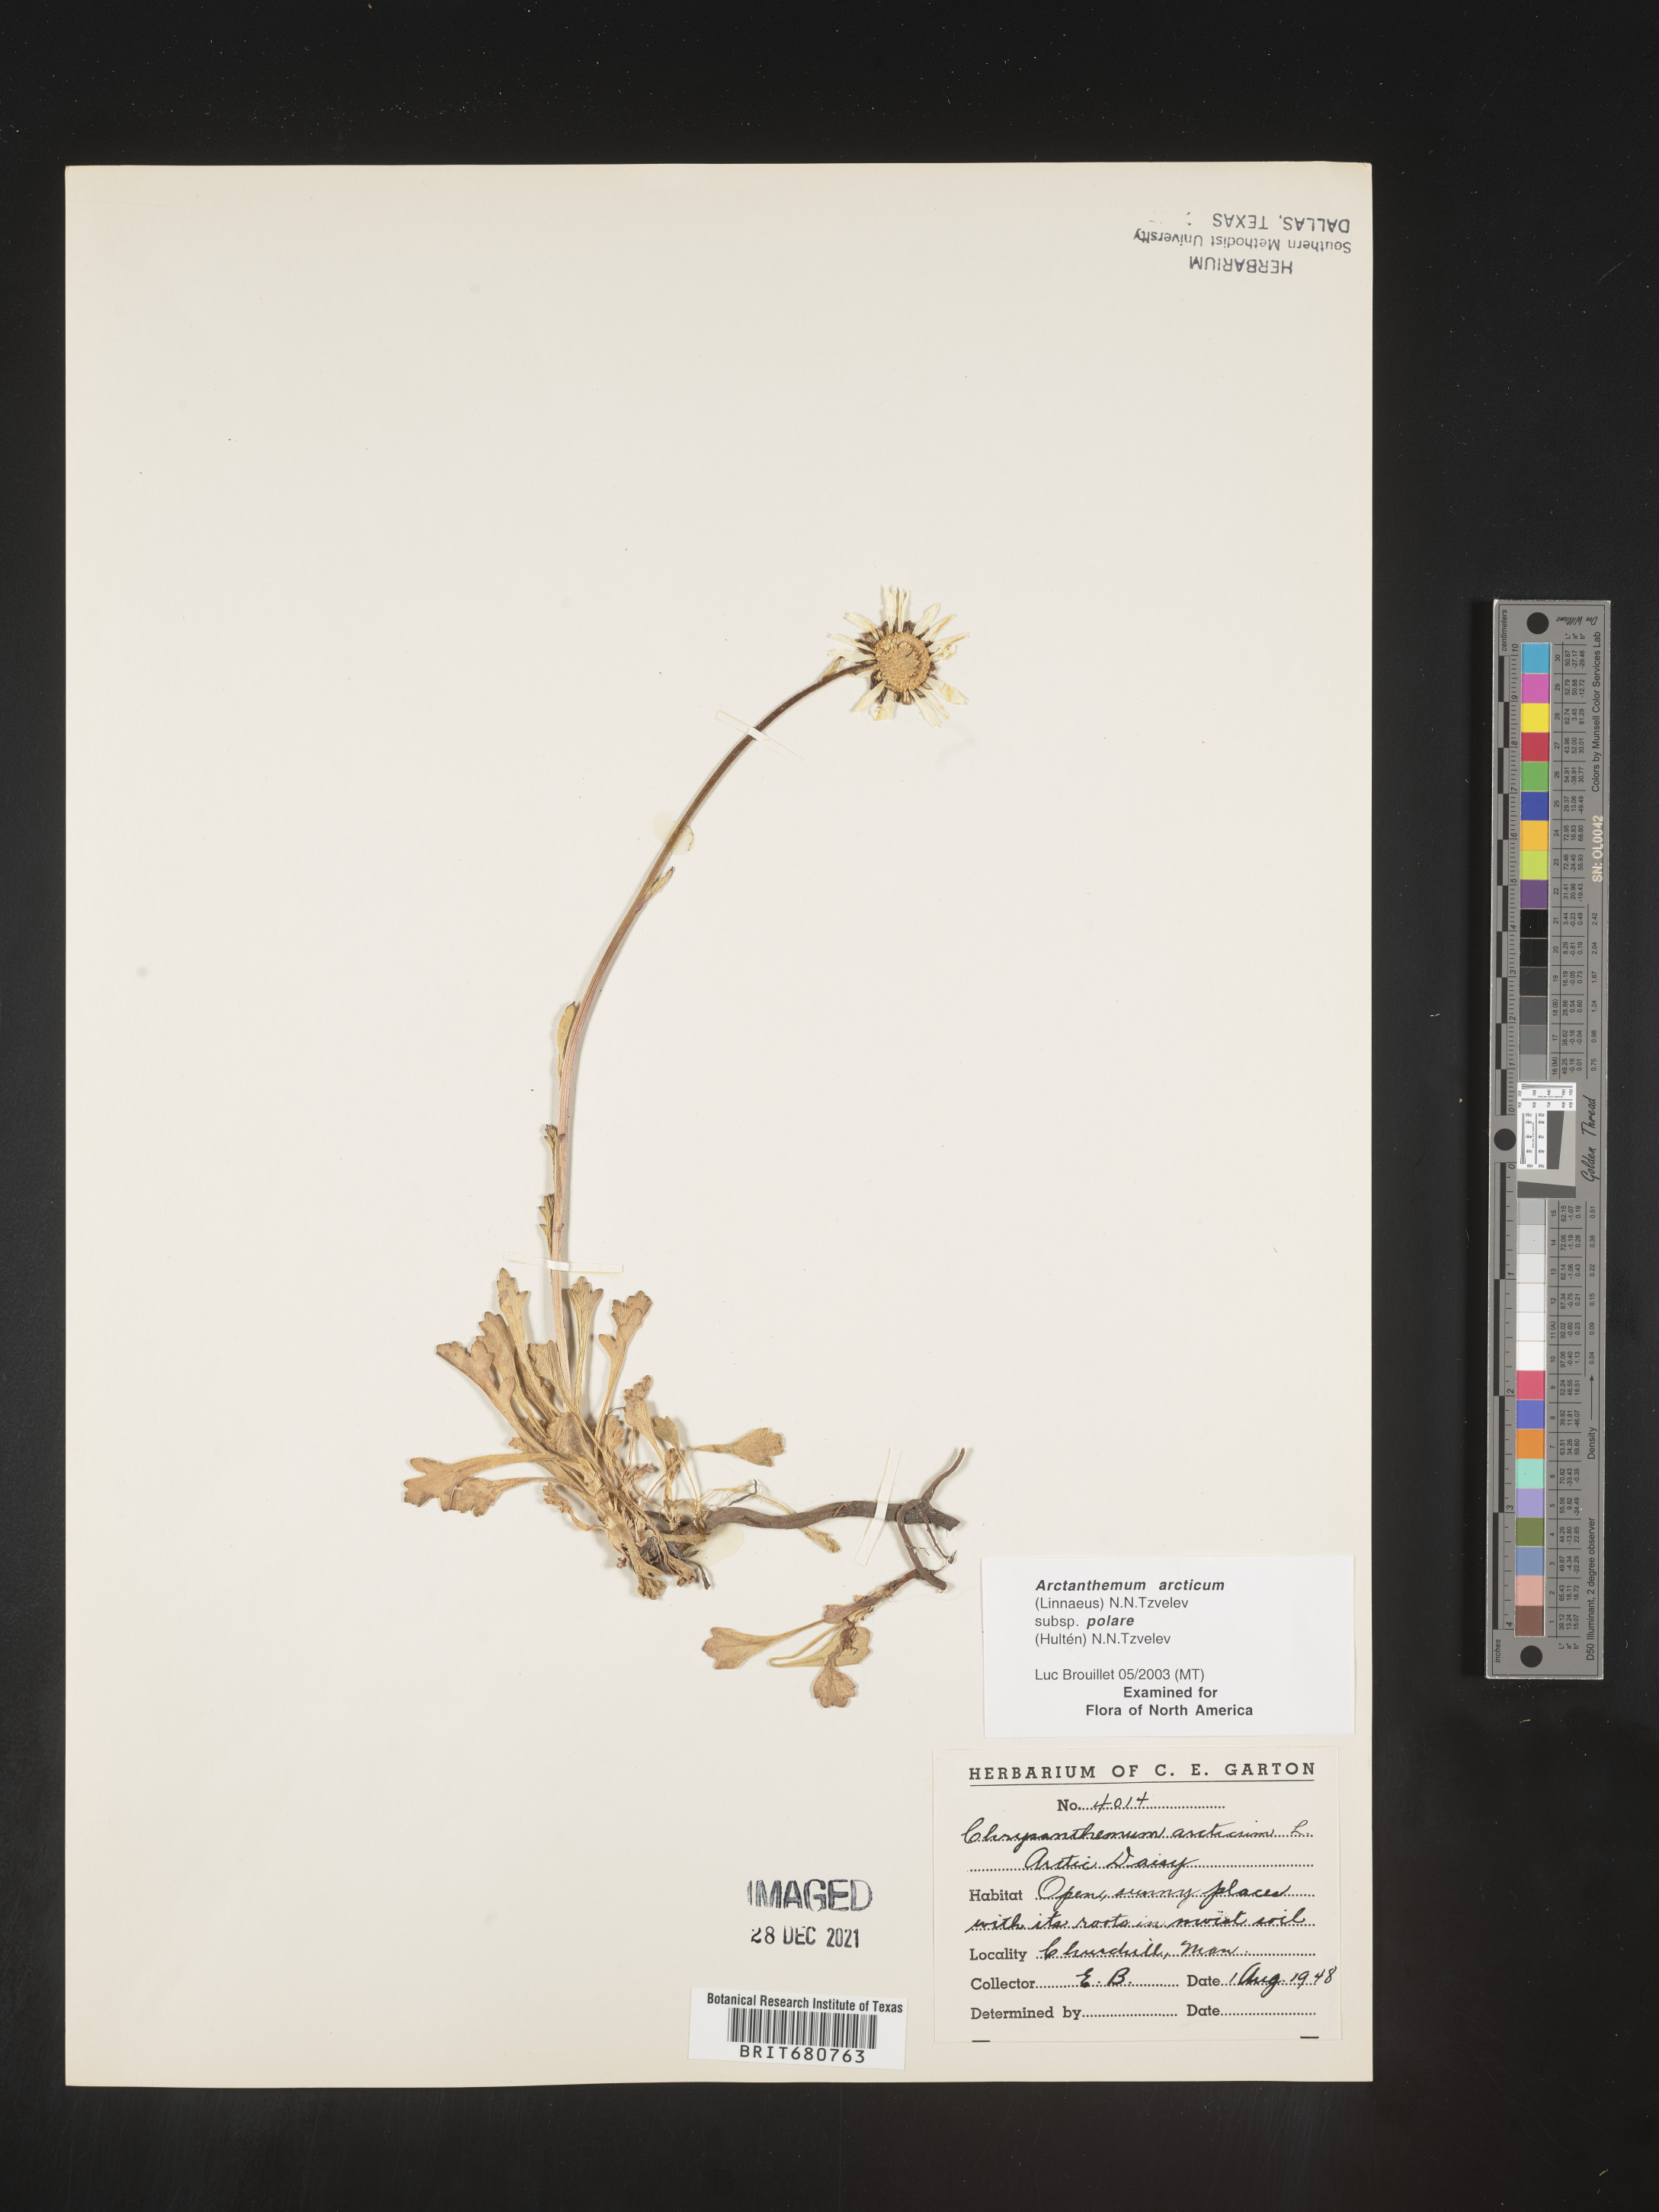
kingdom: Plantae
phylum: Tracheophyta
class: Magnoliopsida
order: Asterales
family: Asteraceae
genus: Arctanthemum
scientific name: Arctanthemum arcticum
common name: Arctic daisy
